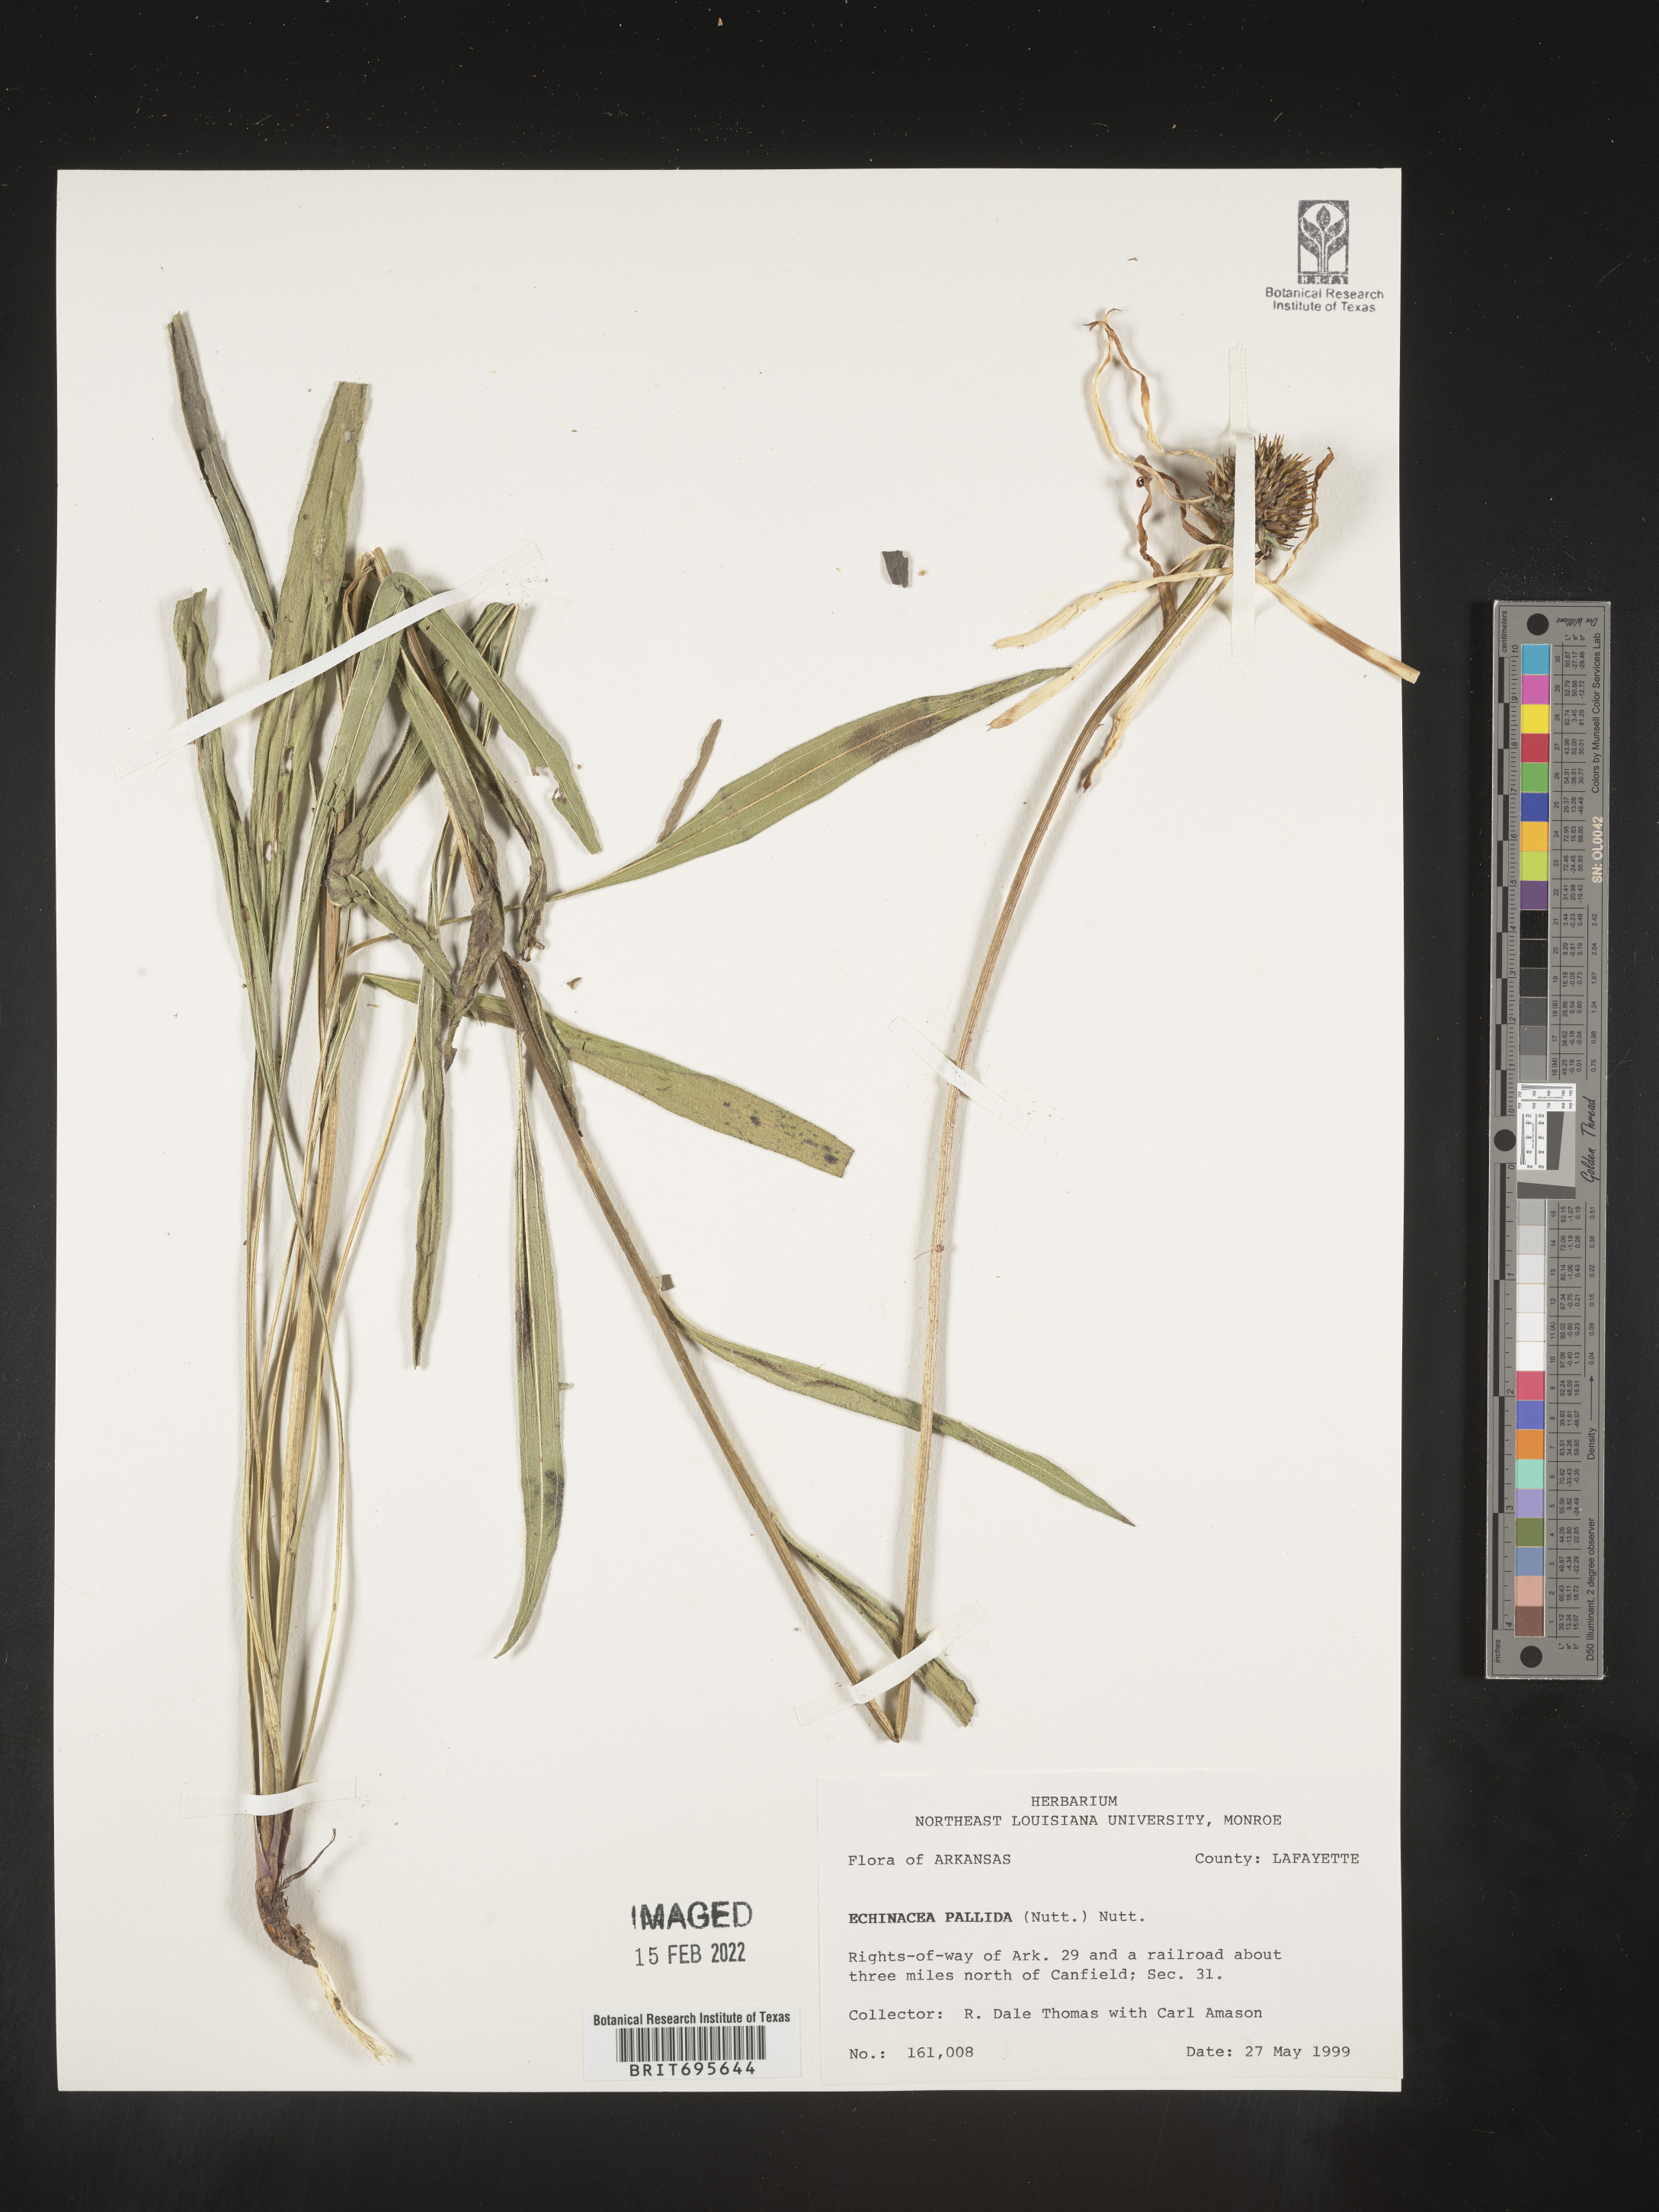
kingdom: Plantae
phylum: Tracheophyta
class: Magnoliopsida
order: Asterales
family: Asteraceae
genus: Echinacea
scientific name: Echinacea pallida
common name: Pale echinacea
